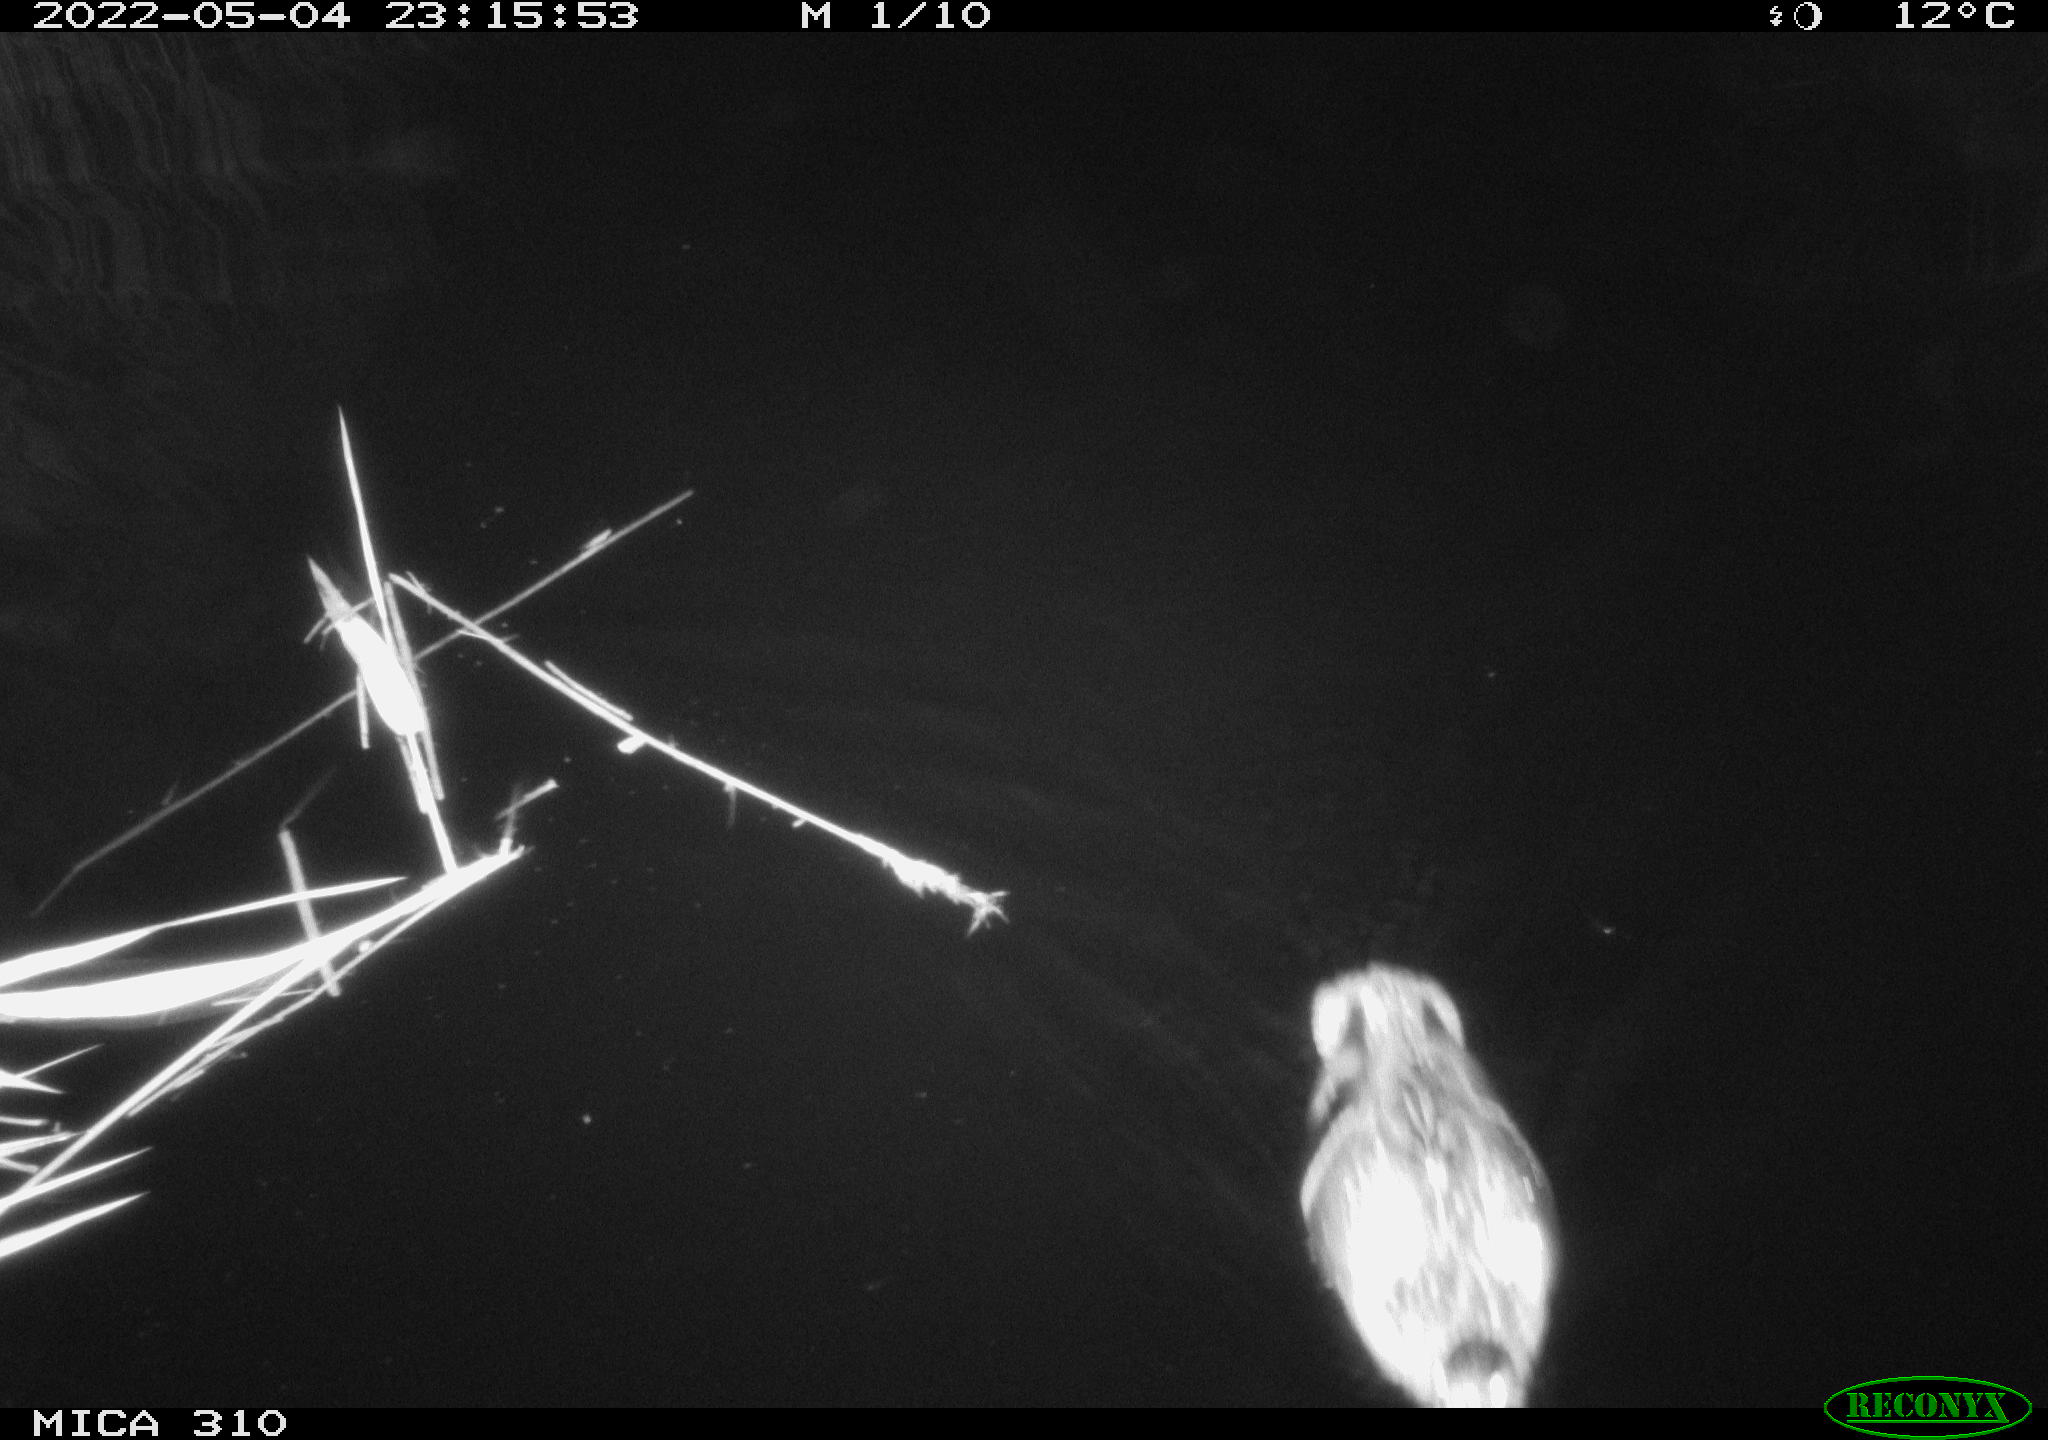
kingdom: Animalia
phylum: Chordata
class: Aves
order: Anseriformes
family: Anatidae
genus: Anas
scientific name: Anas platyrhynchos
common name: Mallard
